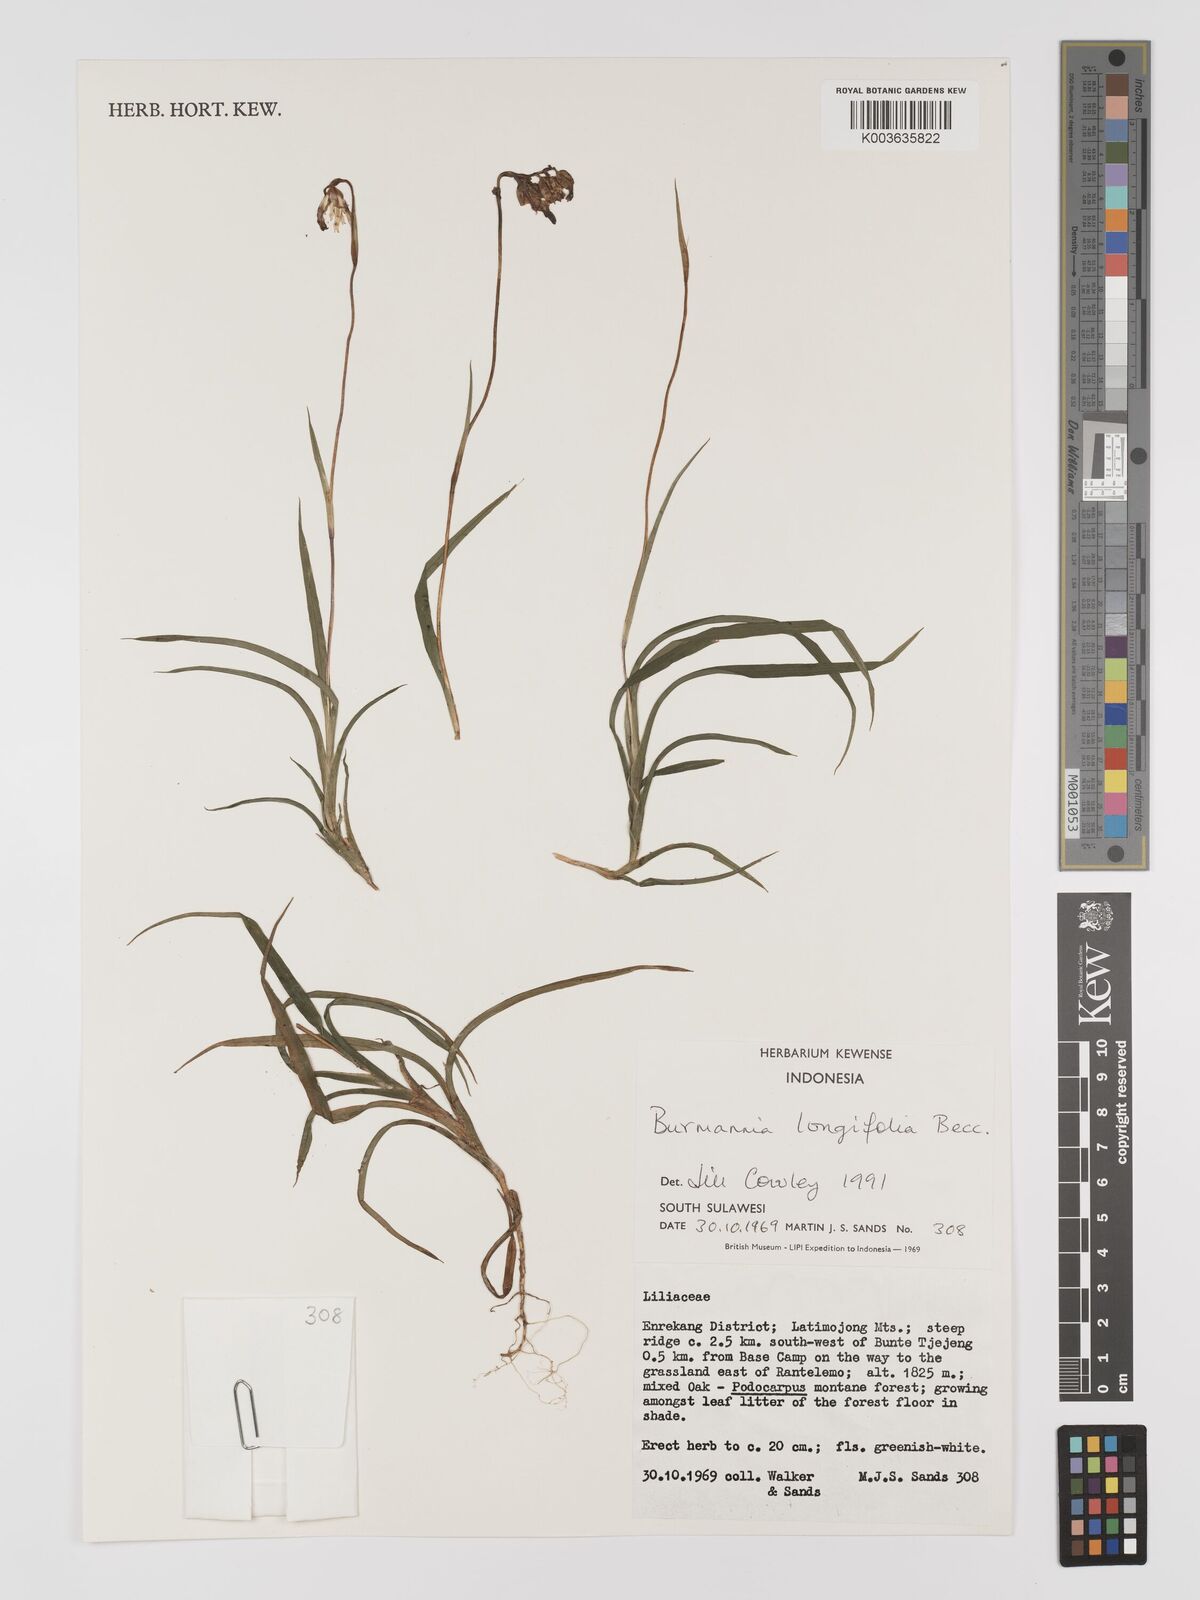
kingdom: Plantae
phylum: Tracheophyta
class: Liliopsida
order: Dioscoreales
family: Burmanniaceae
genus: Burmannia
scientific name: Burmannia longifolia
